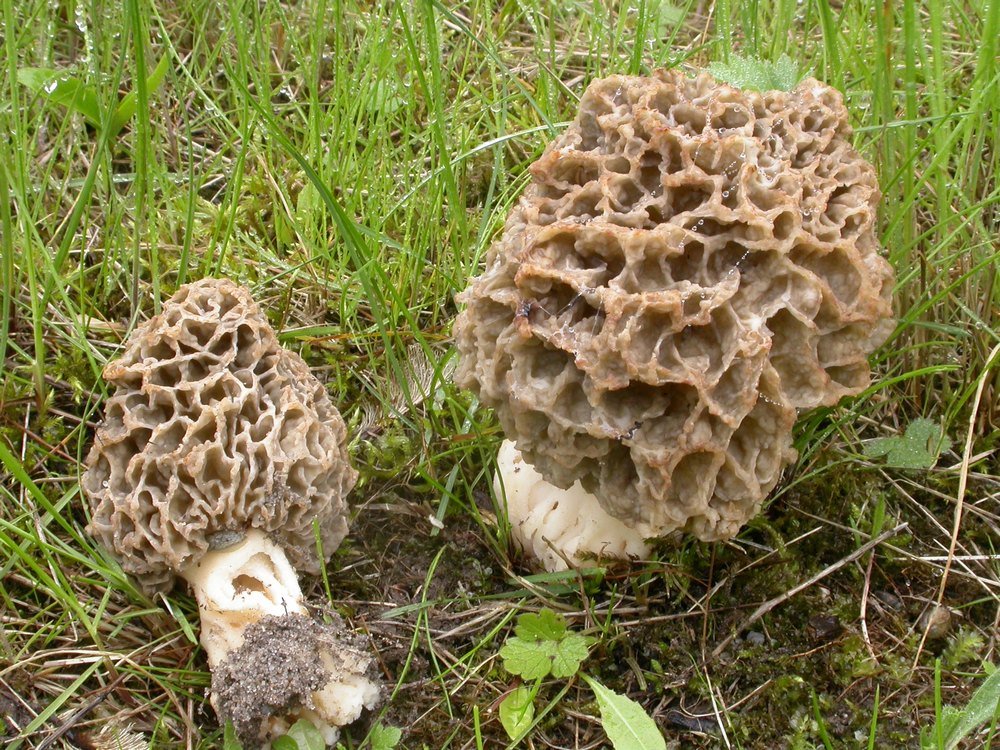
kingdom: Fungi
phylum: Ascomycota
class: Pezizomycetes
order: Pezizales
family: Morchellaceae
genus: Morchella
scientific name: Morchella esculenta
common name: spiselig morkel
